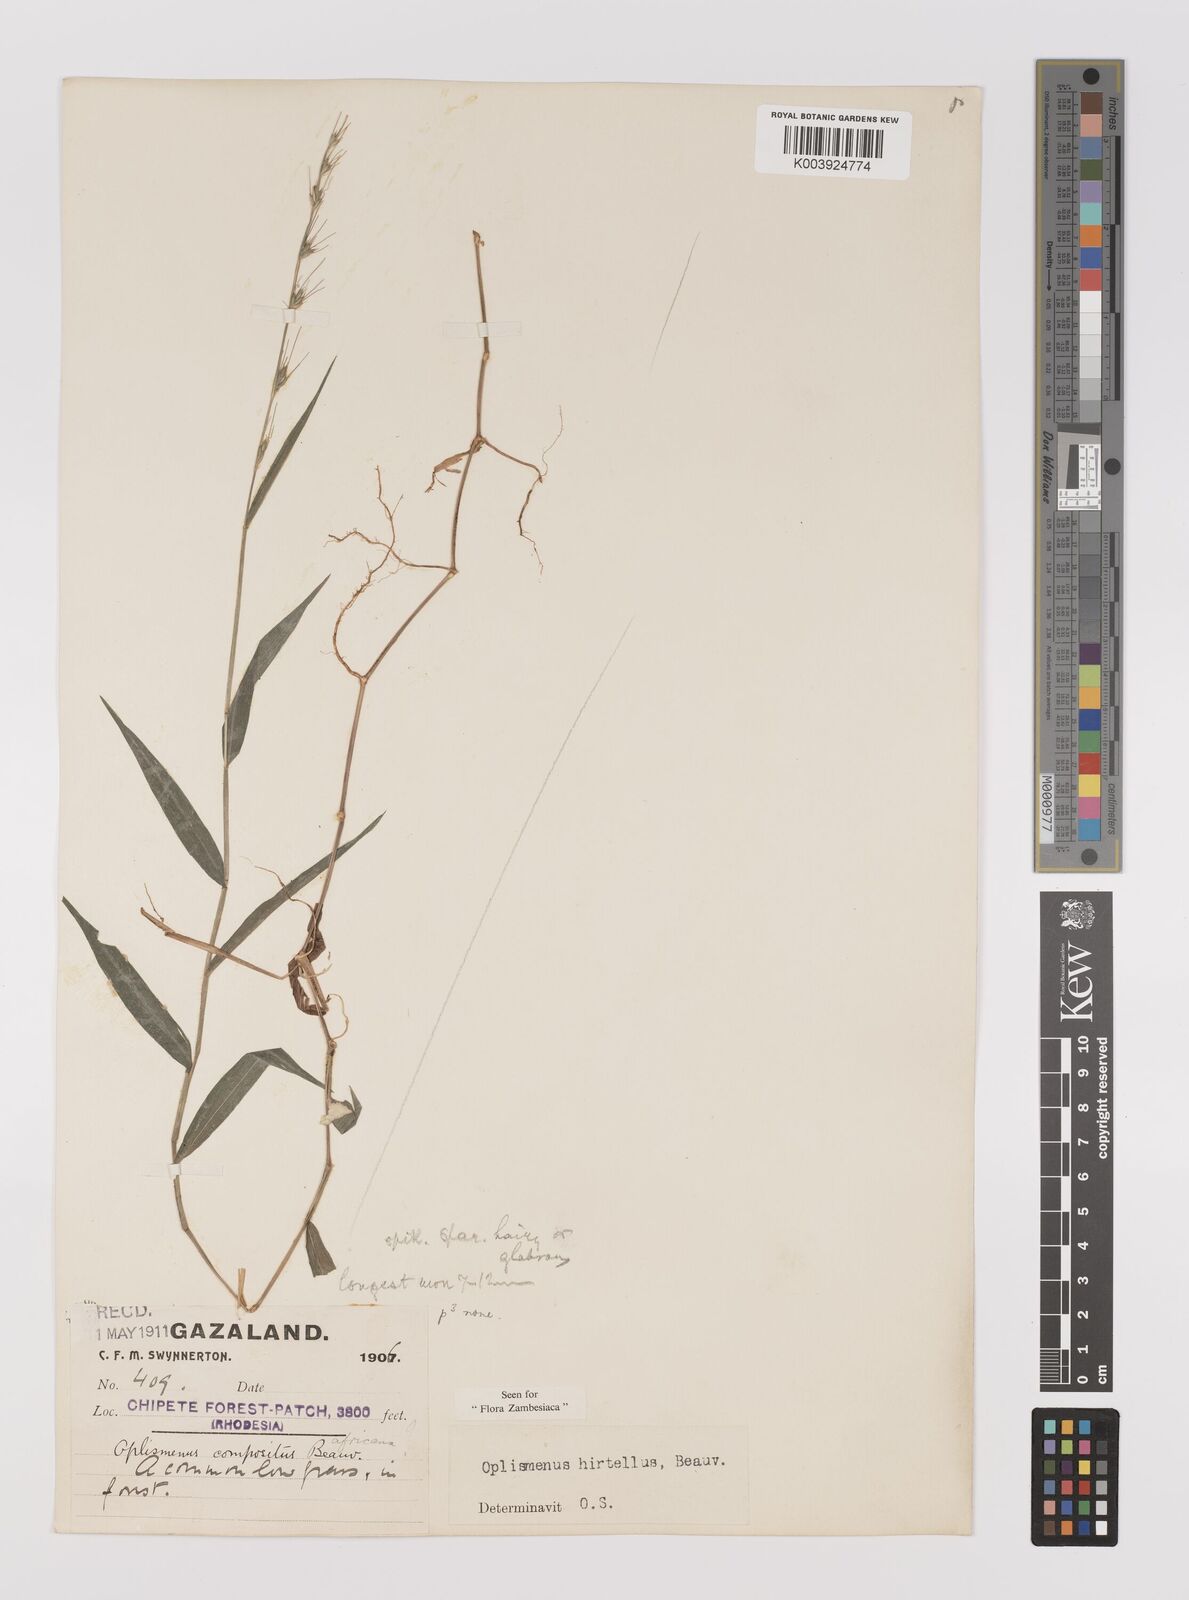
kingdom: Plantae
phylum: Tracheophyta
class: Liliopsida
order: Poales
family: Poaceae
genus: Oplismenus
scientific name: Oplismenus hirtellus
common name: Basketgrass
